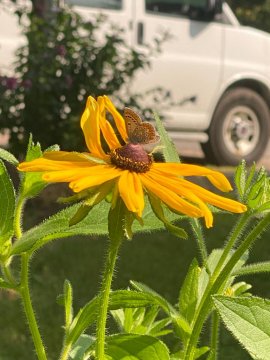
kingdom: Animalia
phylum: Arthropoda
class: Insecta
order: Lepidoptera
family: Lycaenidae
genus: Polyommatus
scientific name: Polyommatus icarus
